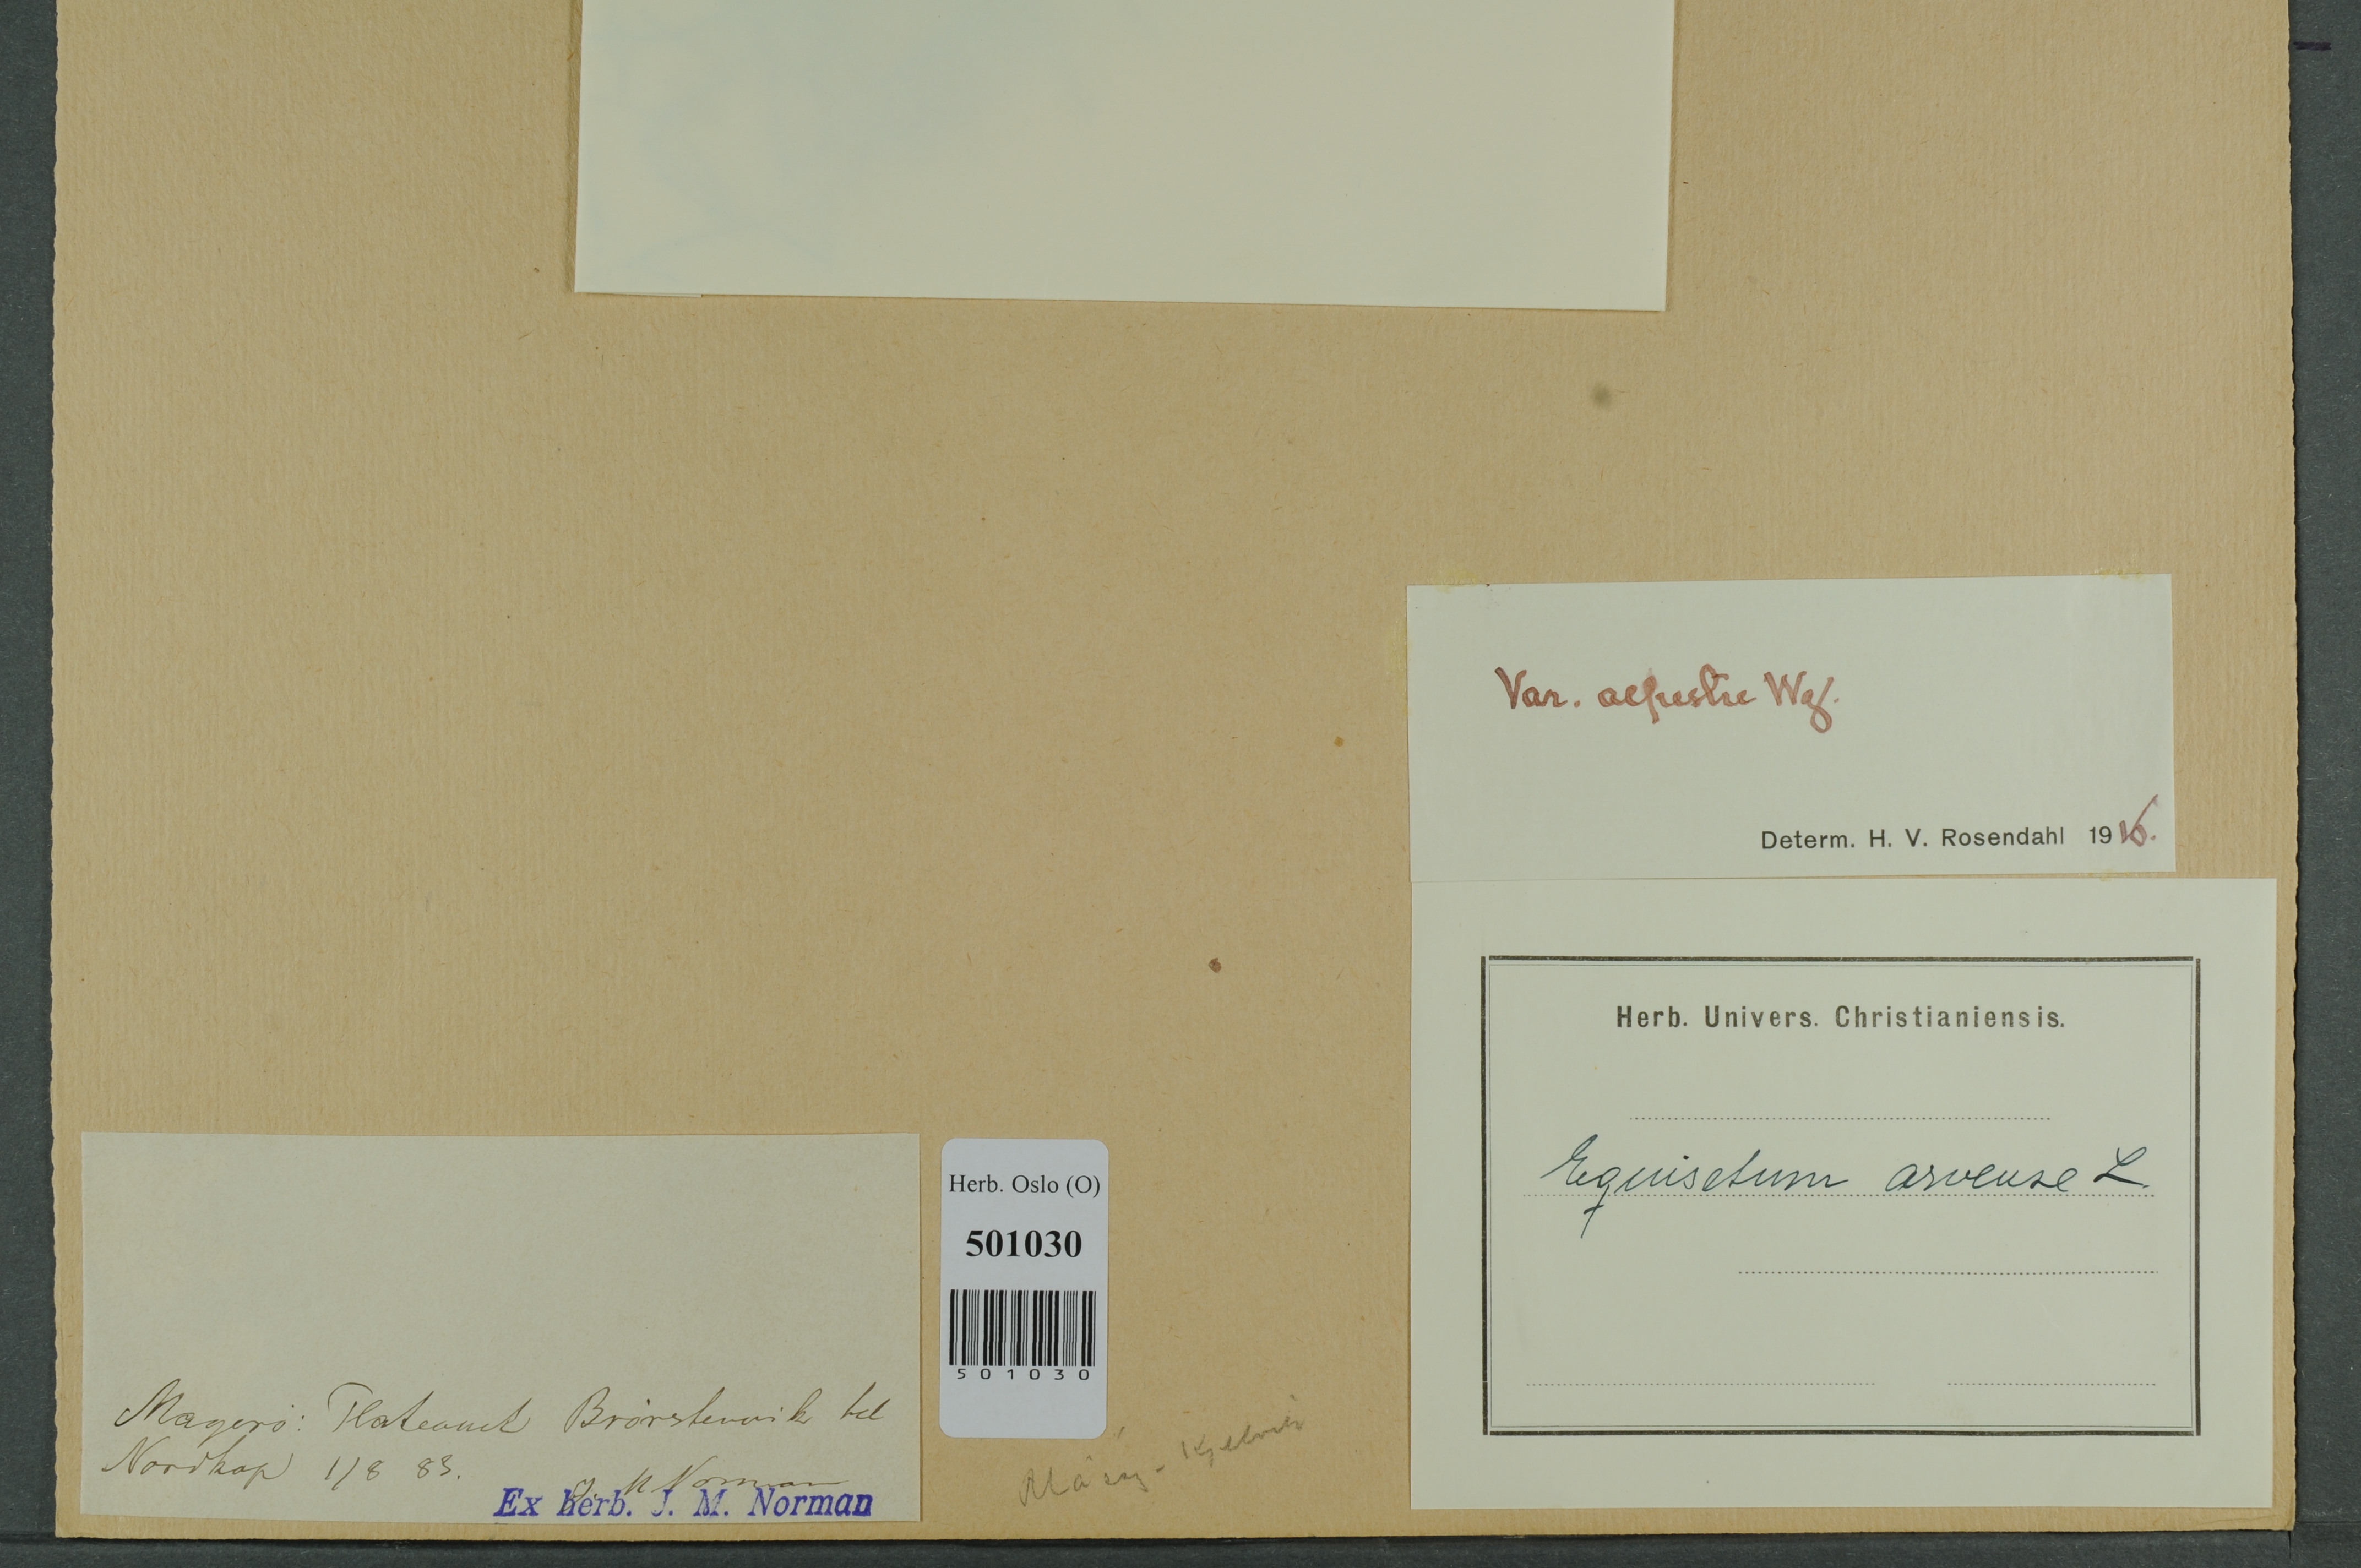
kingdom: Plantae
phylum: Tracheophyta
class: Polypodiopsida
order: Equisetales
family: Equisetaceae
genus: Equisetum
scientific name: Equisetum arvense
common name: Field horsetail
